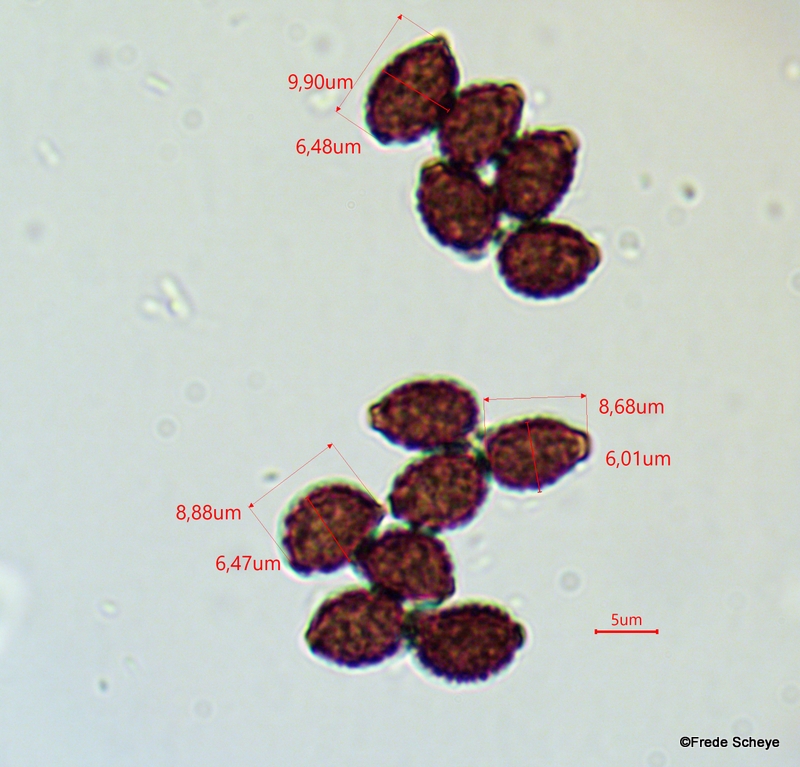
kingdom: Fungi
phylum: Basidiomycota
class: Agaricomycetes
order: Agaricales
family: Psathyrellaceae
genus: Lacrymaria
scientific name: Lacrymaria lacrymabunda
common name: grædende mørkhat
